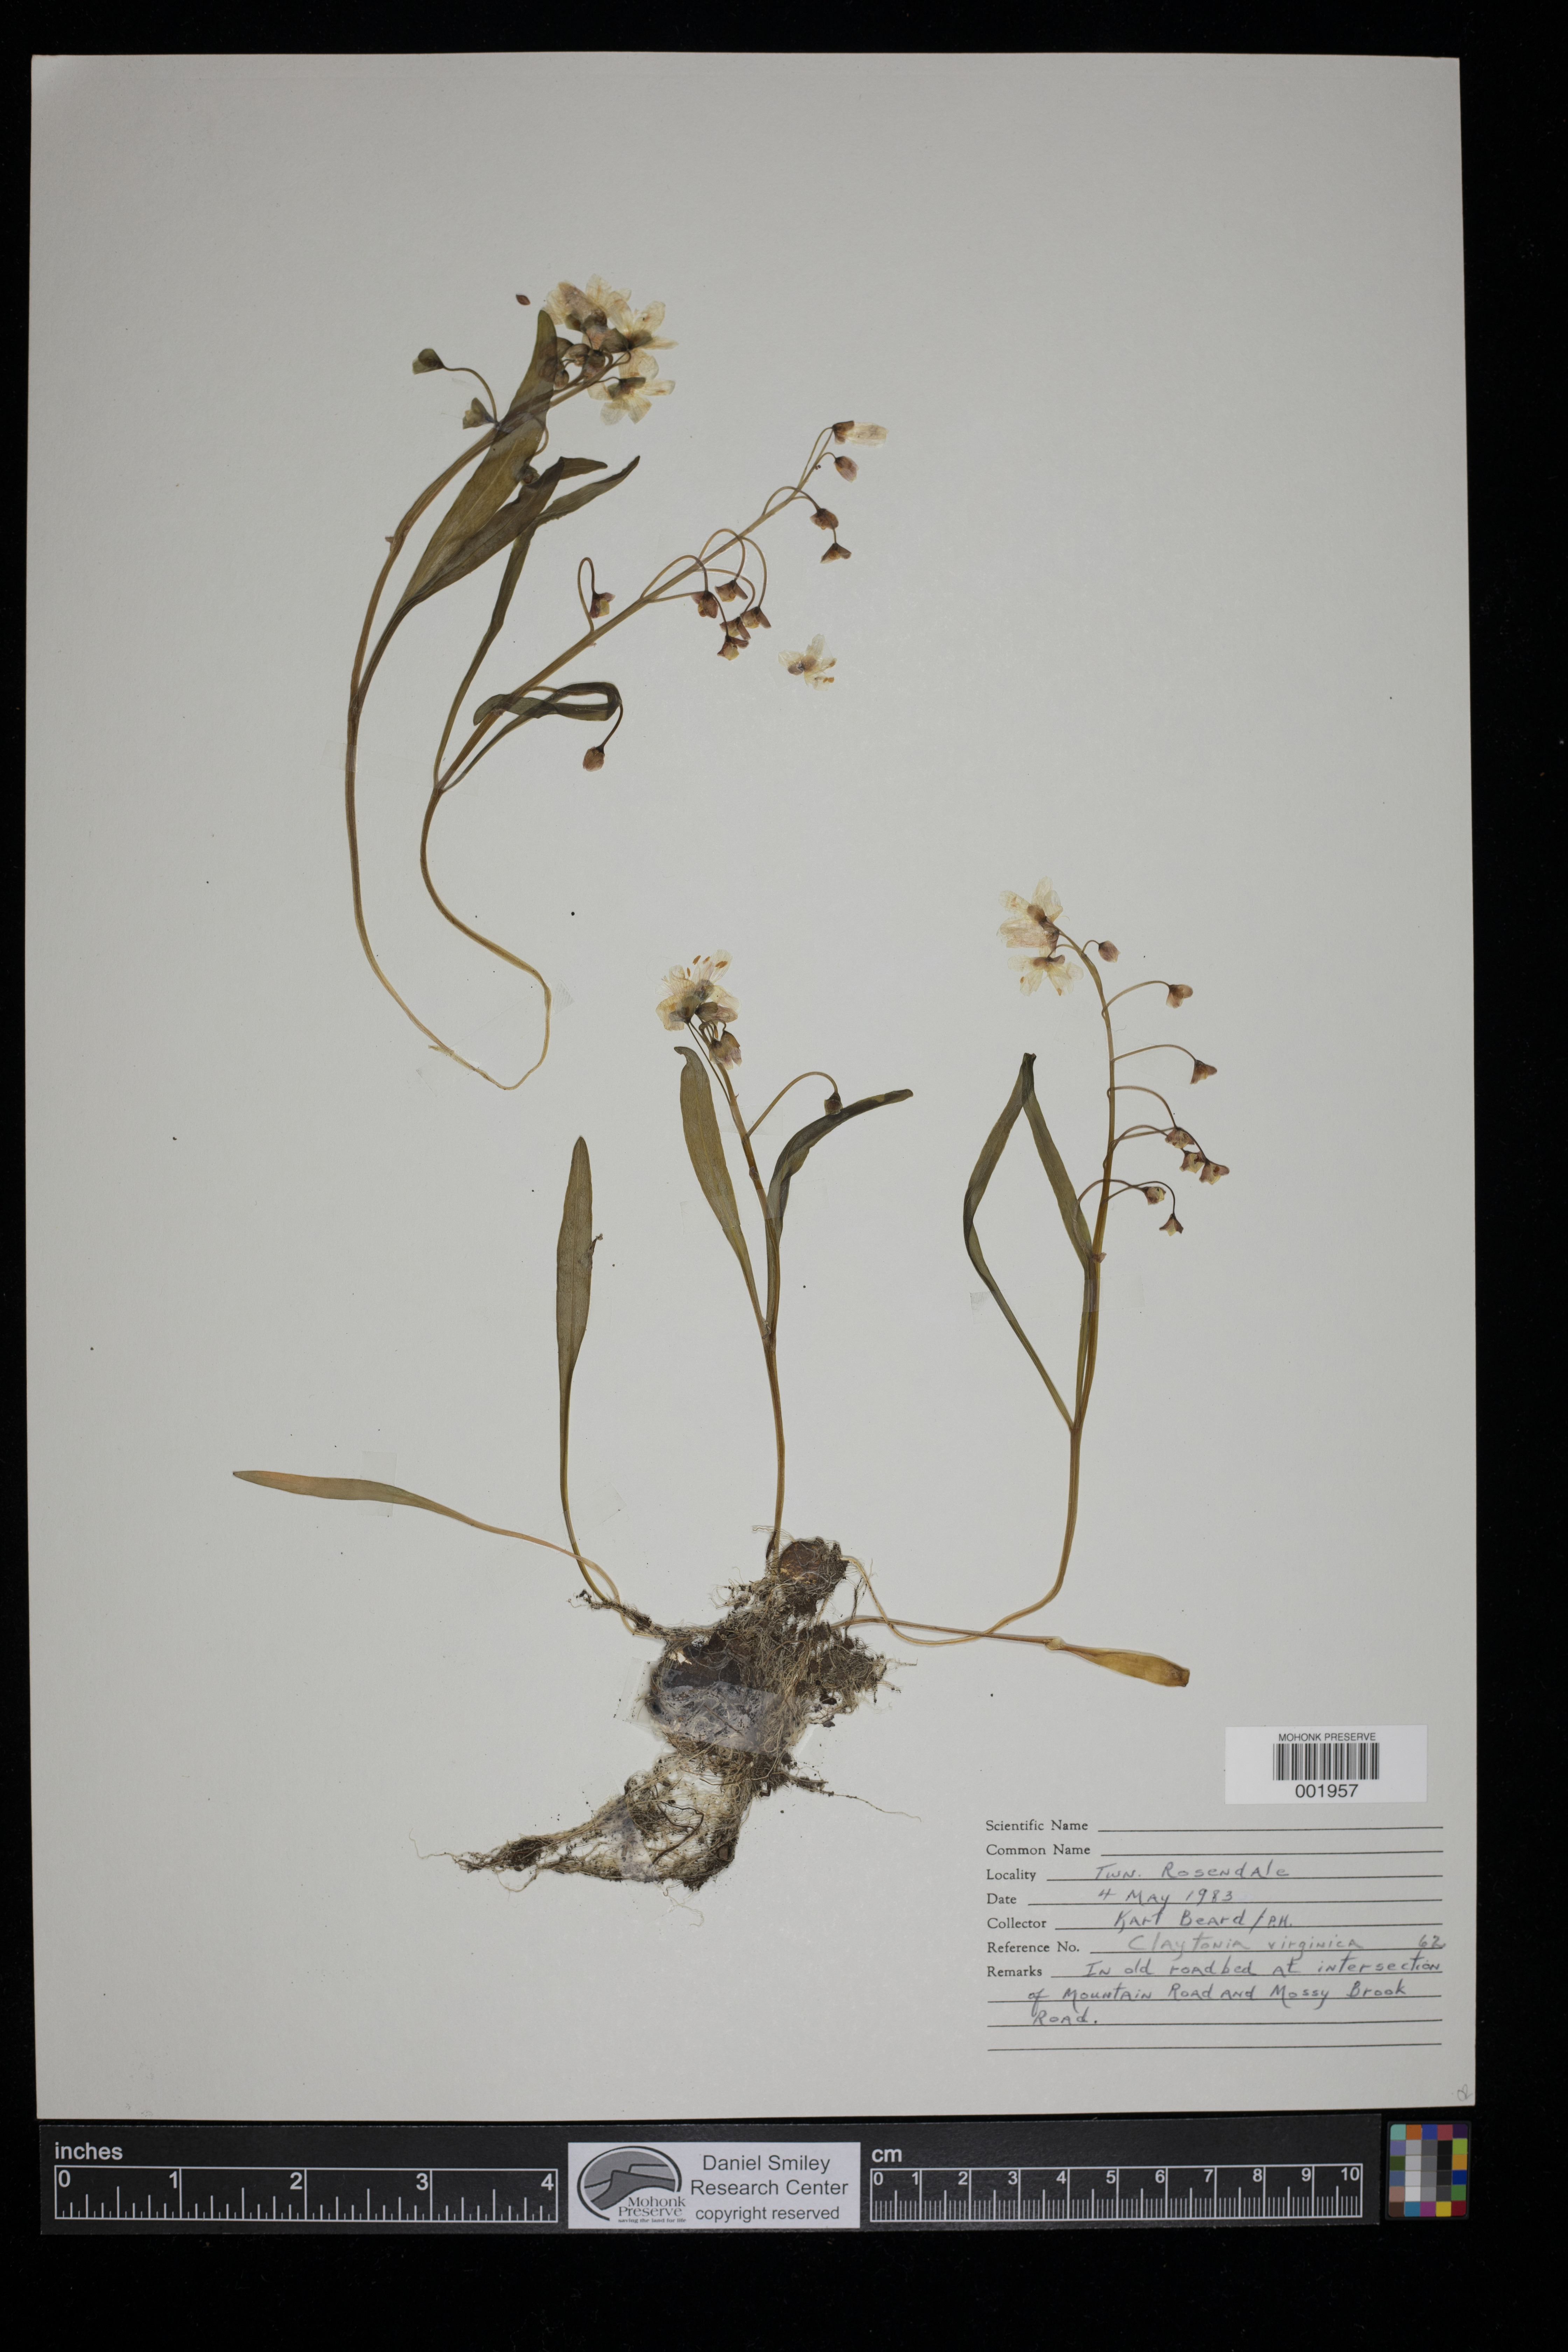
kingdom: Plantae
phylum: Tracheophyta
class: Magnoliopsida
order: Caryophyllales
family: Montiaceae
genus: Claytonia
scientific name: Claytonia virginica
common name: Virginia springbeauty
